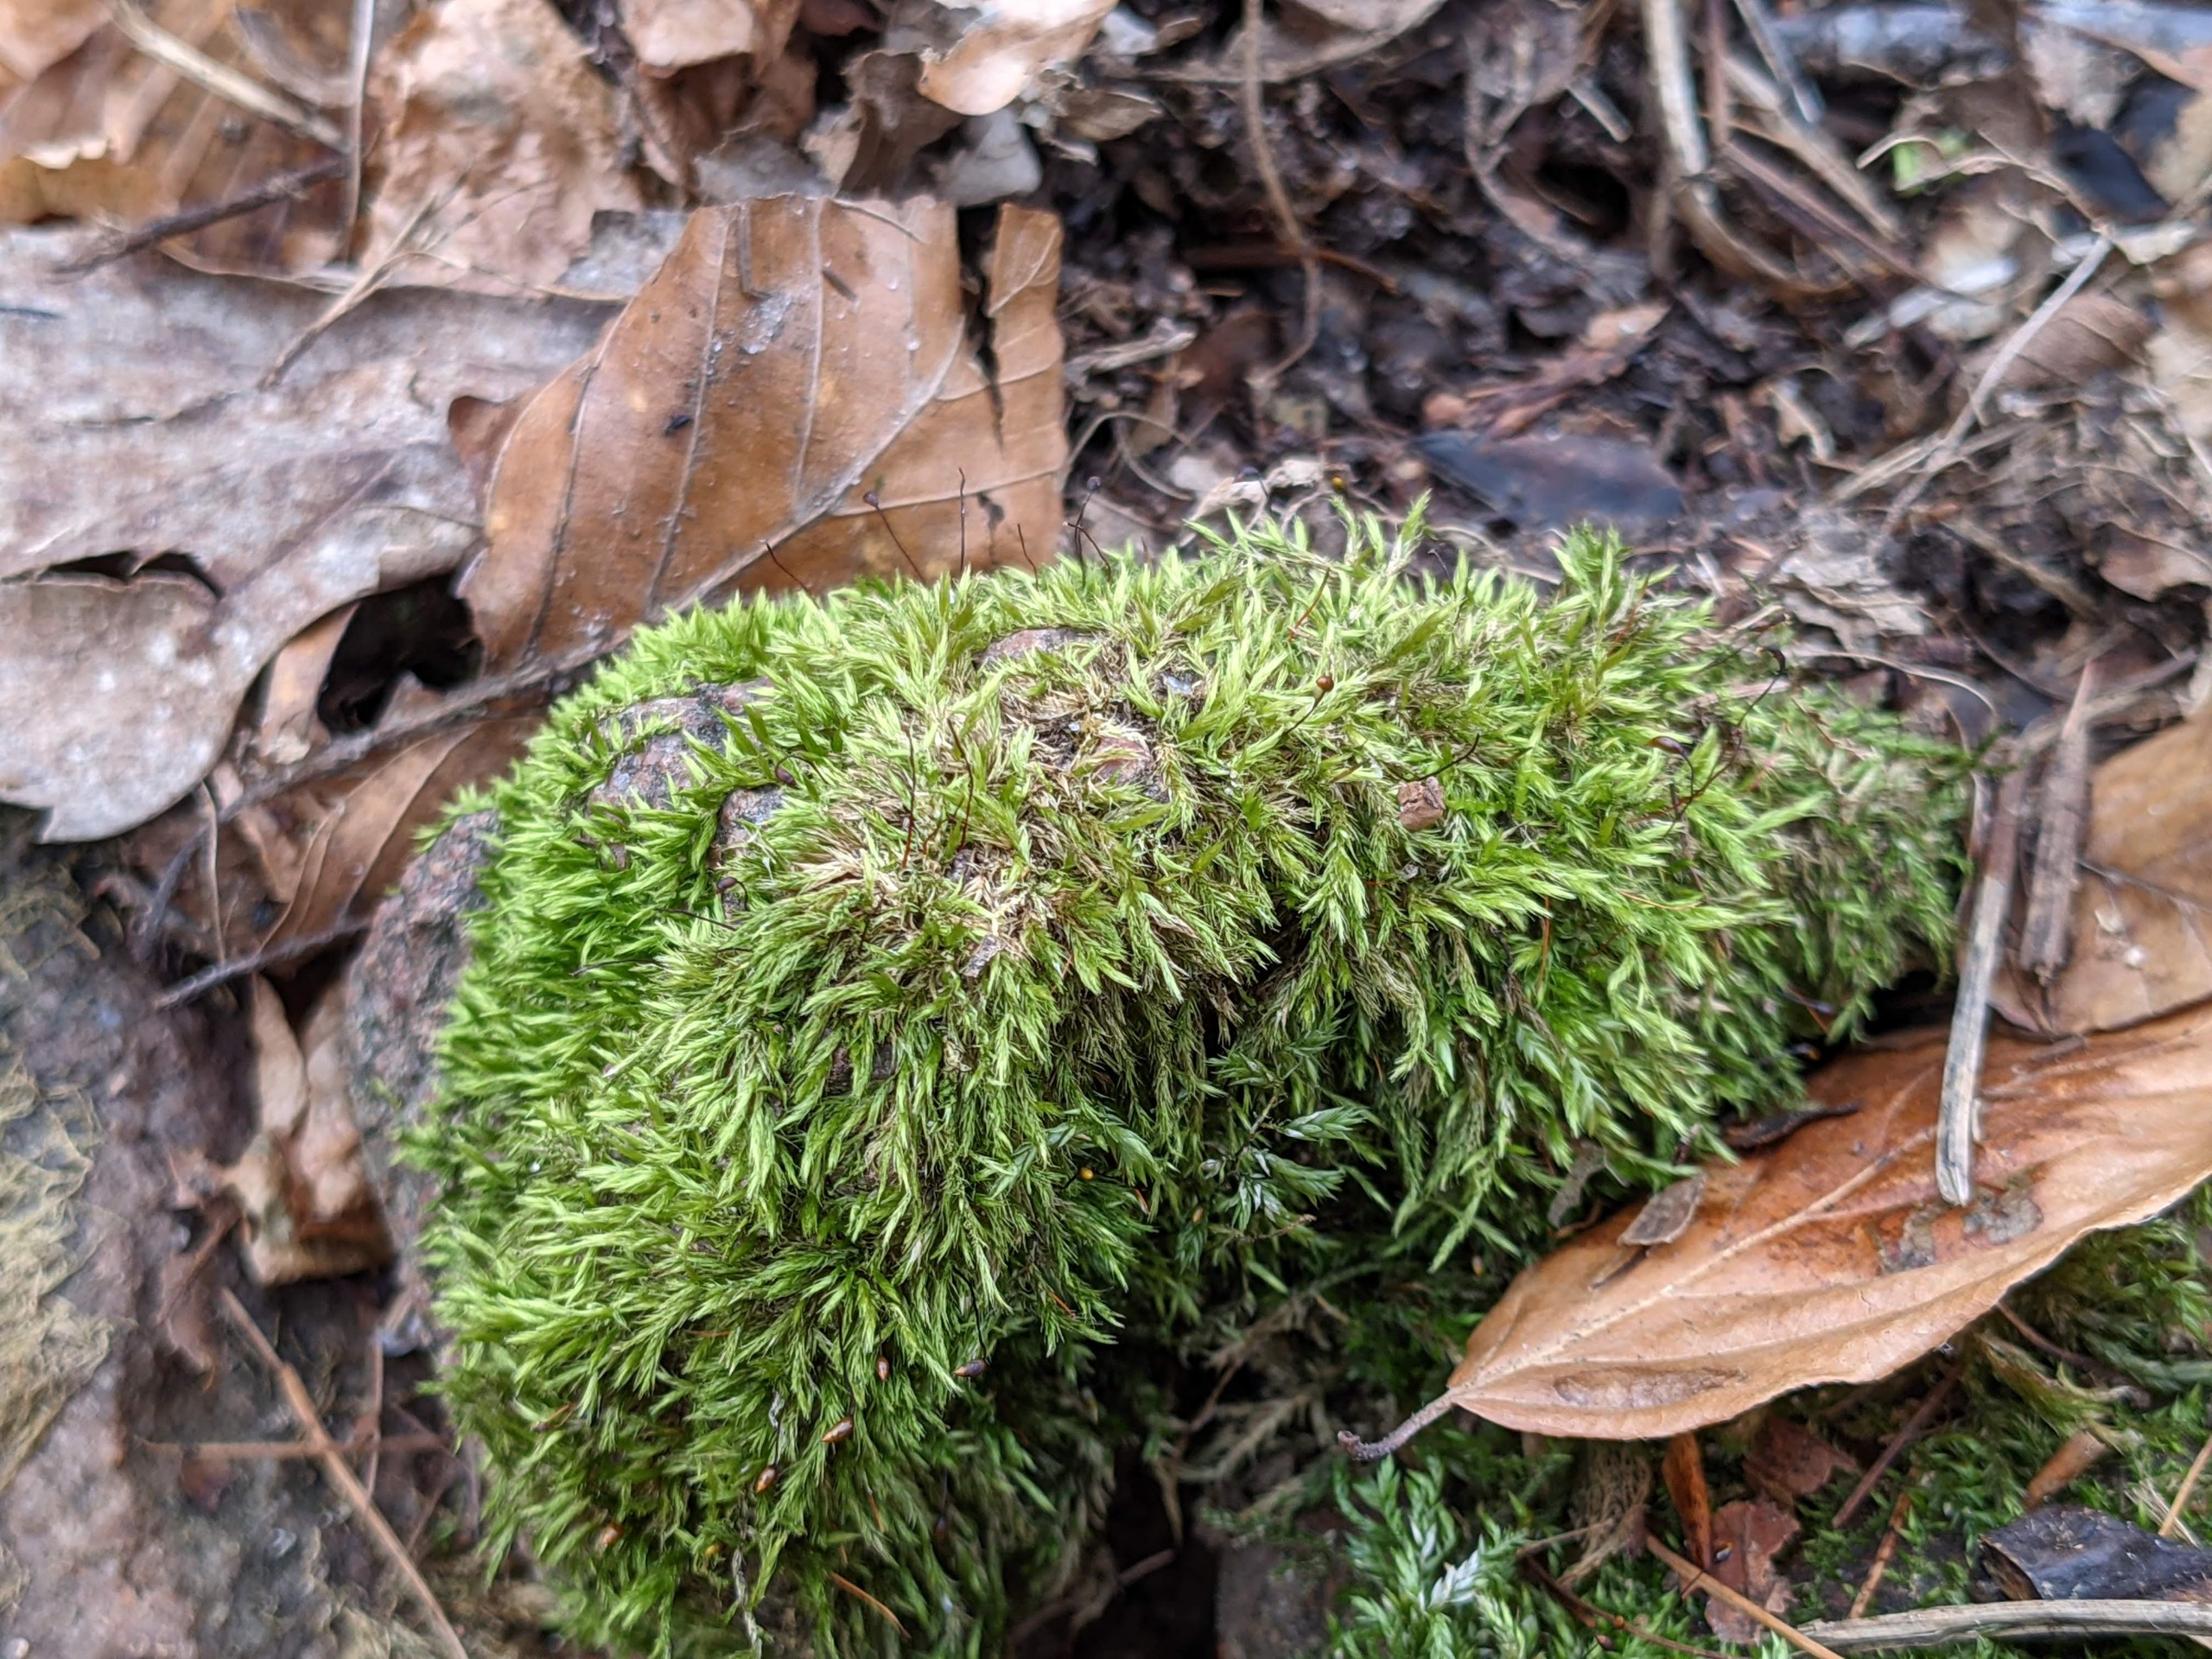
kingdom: Plantae
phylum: Bryophyta
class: Bryopsida
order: Hypnales
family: Brachytheciaceae
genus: Sciuro-hypnum
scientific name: Sciuro-hypnum populeum
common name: Park-kortkapsel
